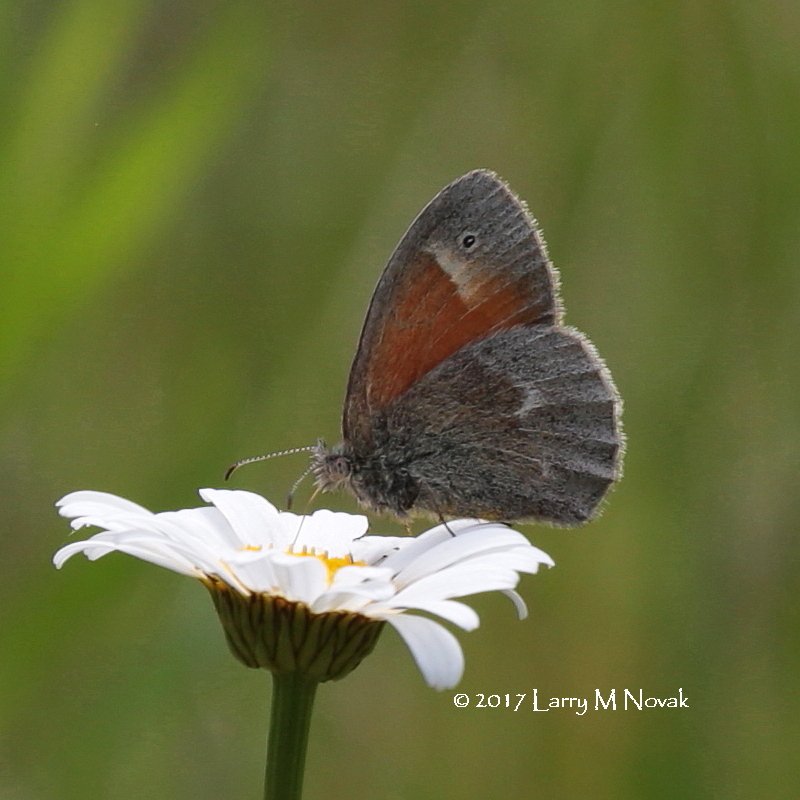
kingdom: Animalia
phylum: Arthropoda
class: Insecta
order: Lepidoptera
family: Nymphalidae
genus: Coenonympha
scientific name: Coenonympha tullia
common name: Large Heath
